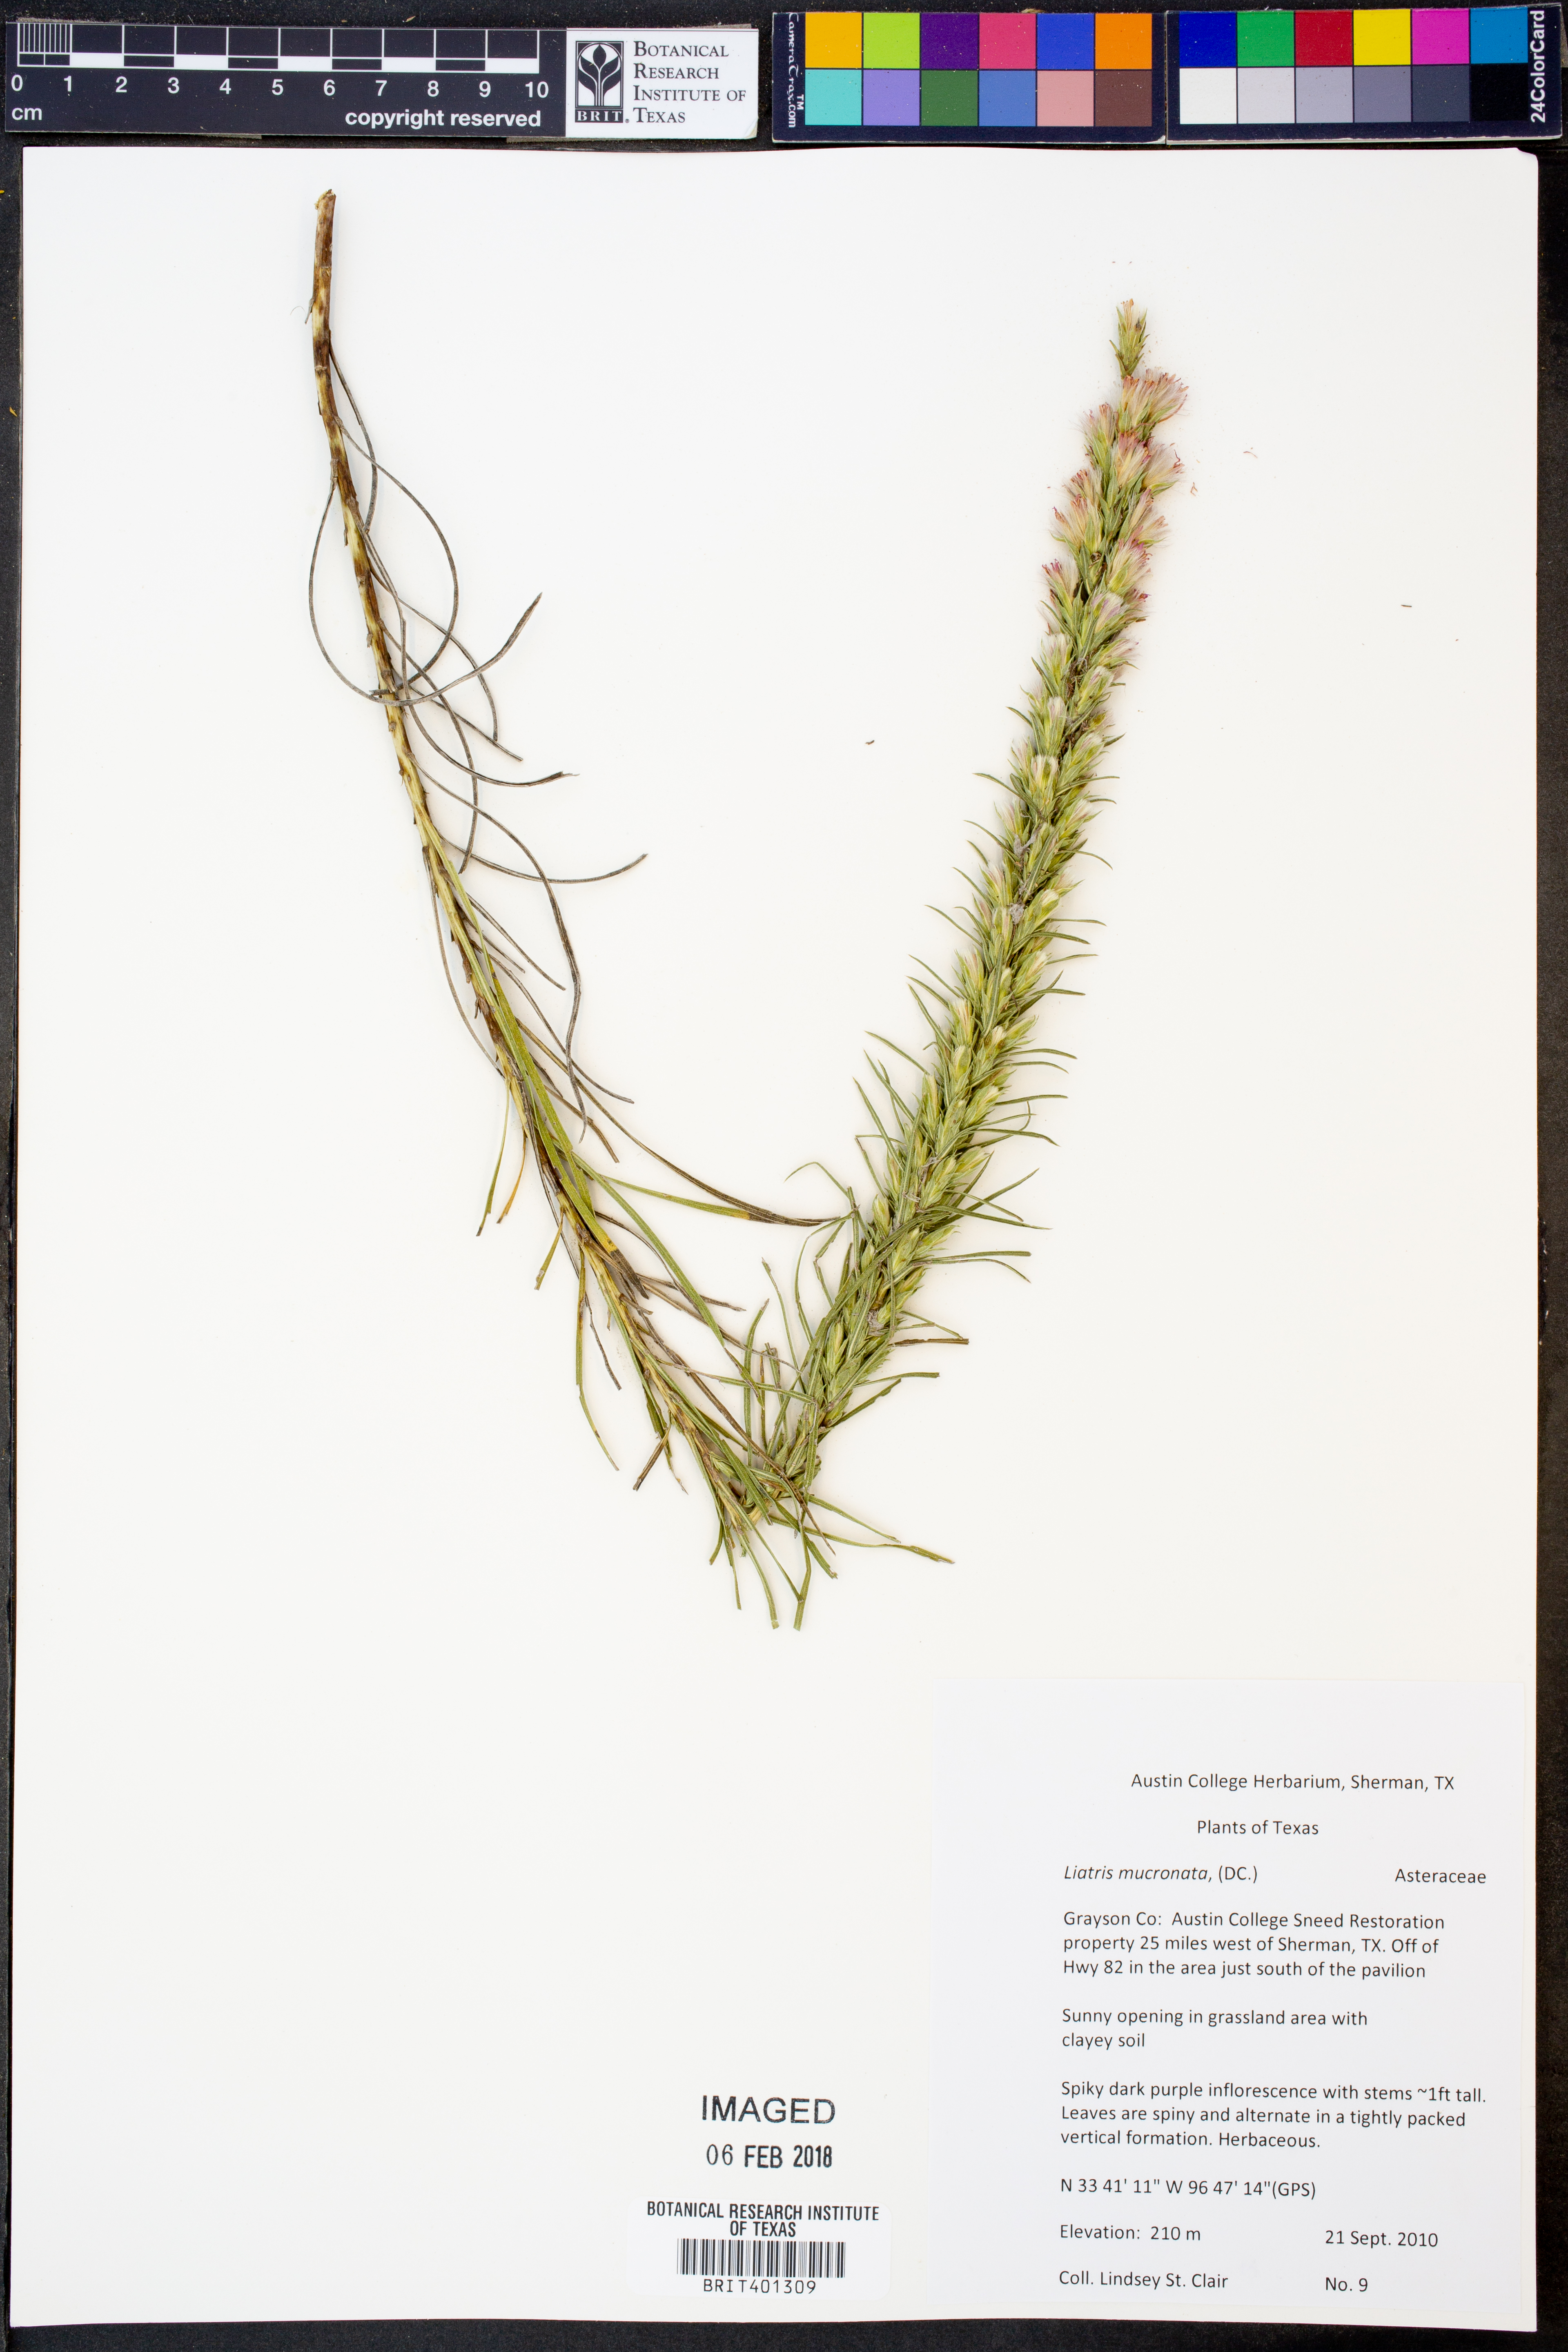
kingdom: Plantae
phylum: Tracheophyta
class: Magnoliopsida
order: Asterales
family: Asteraceae
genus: Liatris
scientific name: Liatris mucronata
